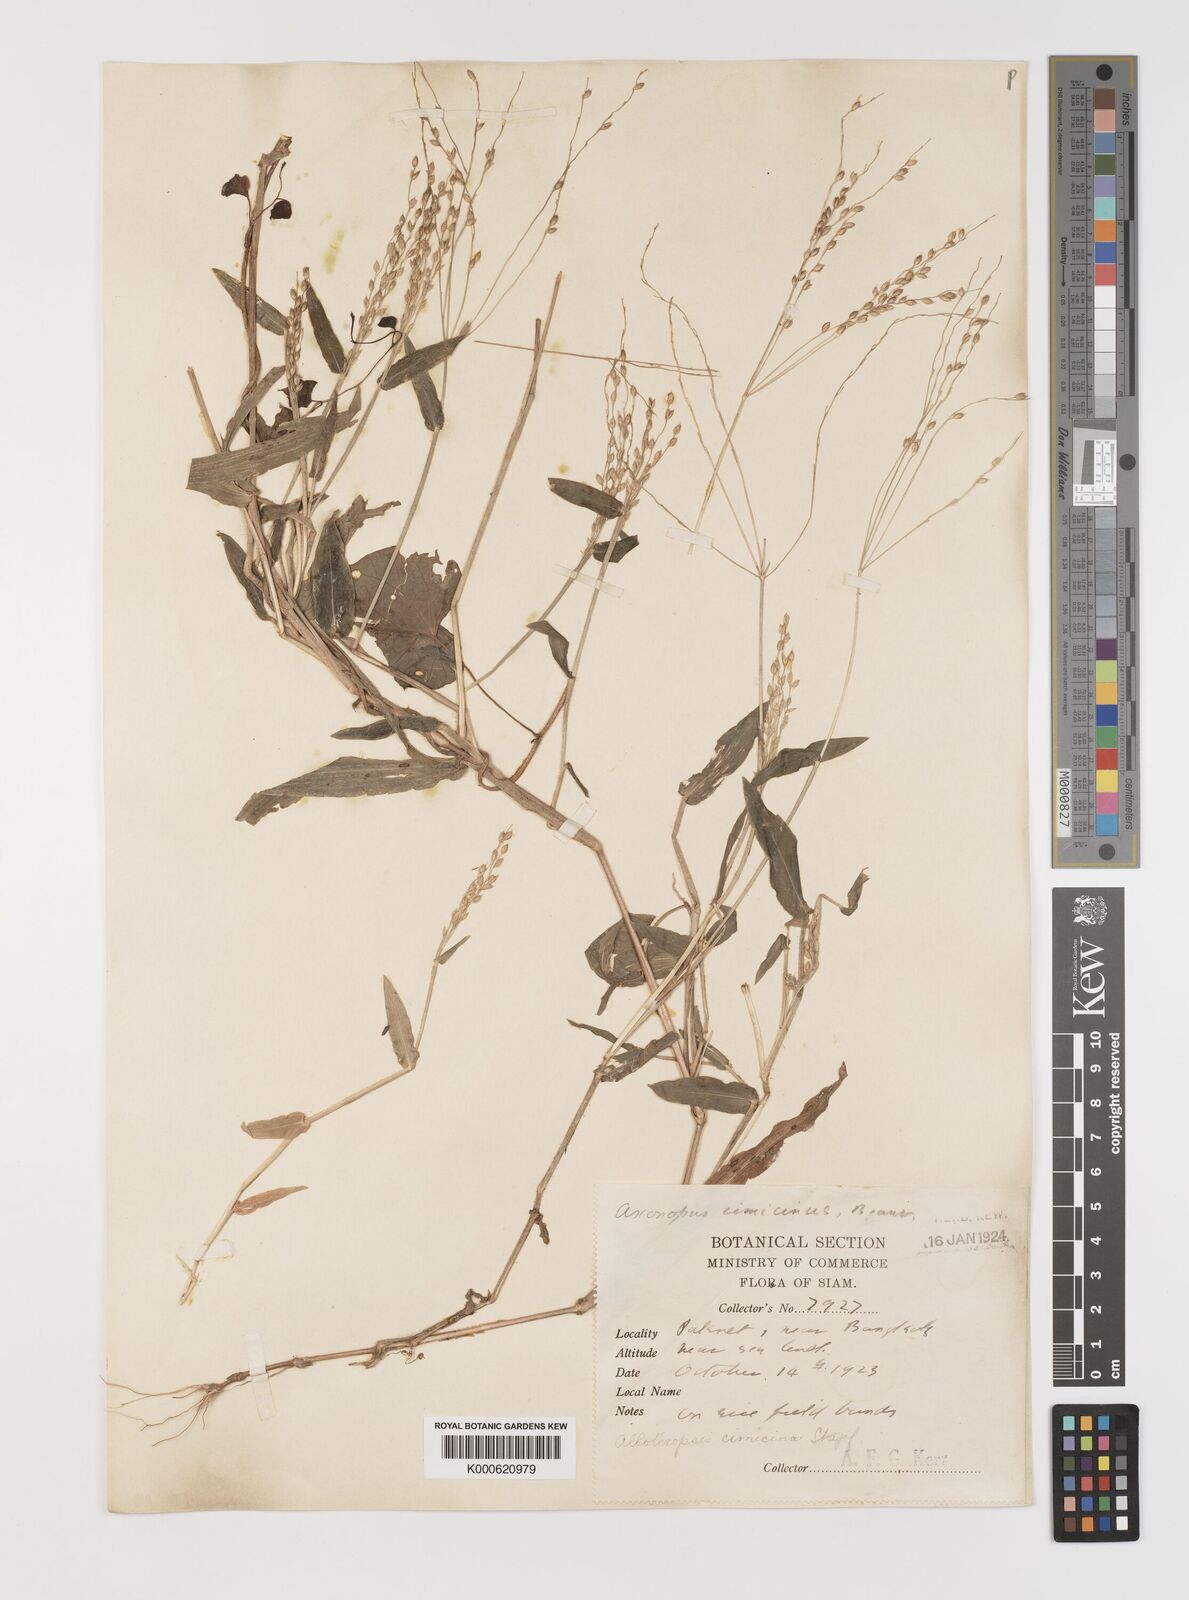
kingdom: Plantae
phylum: Tracheophyta
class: Liliopsida
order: Poales
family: Poaceae
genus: Alloteropsis
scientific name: Alloteropsis cimicina
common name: Summergrass
